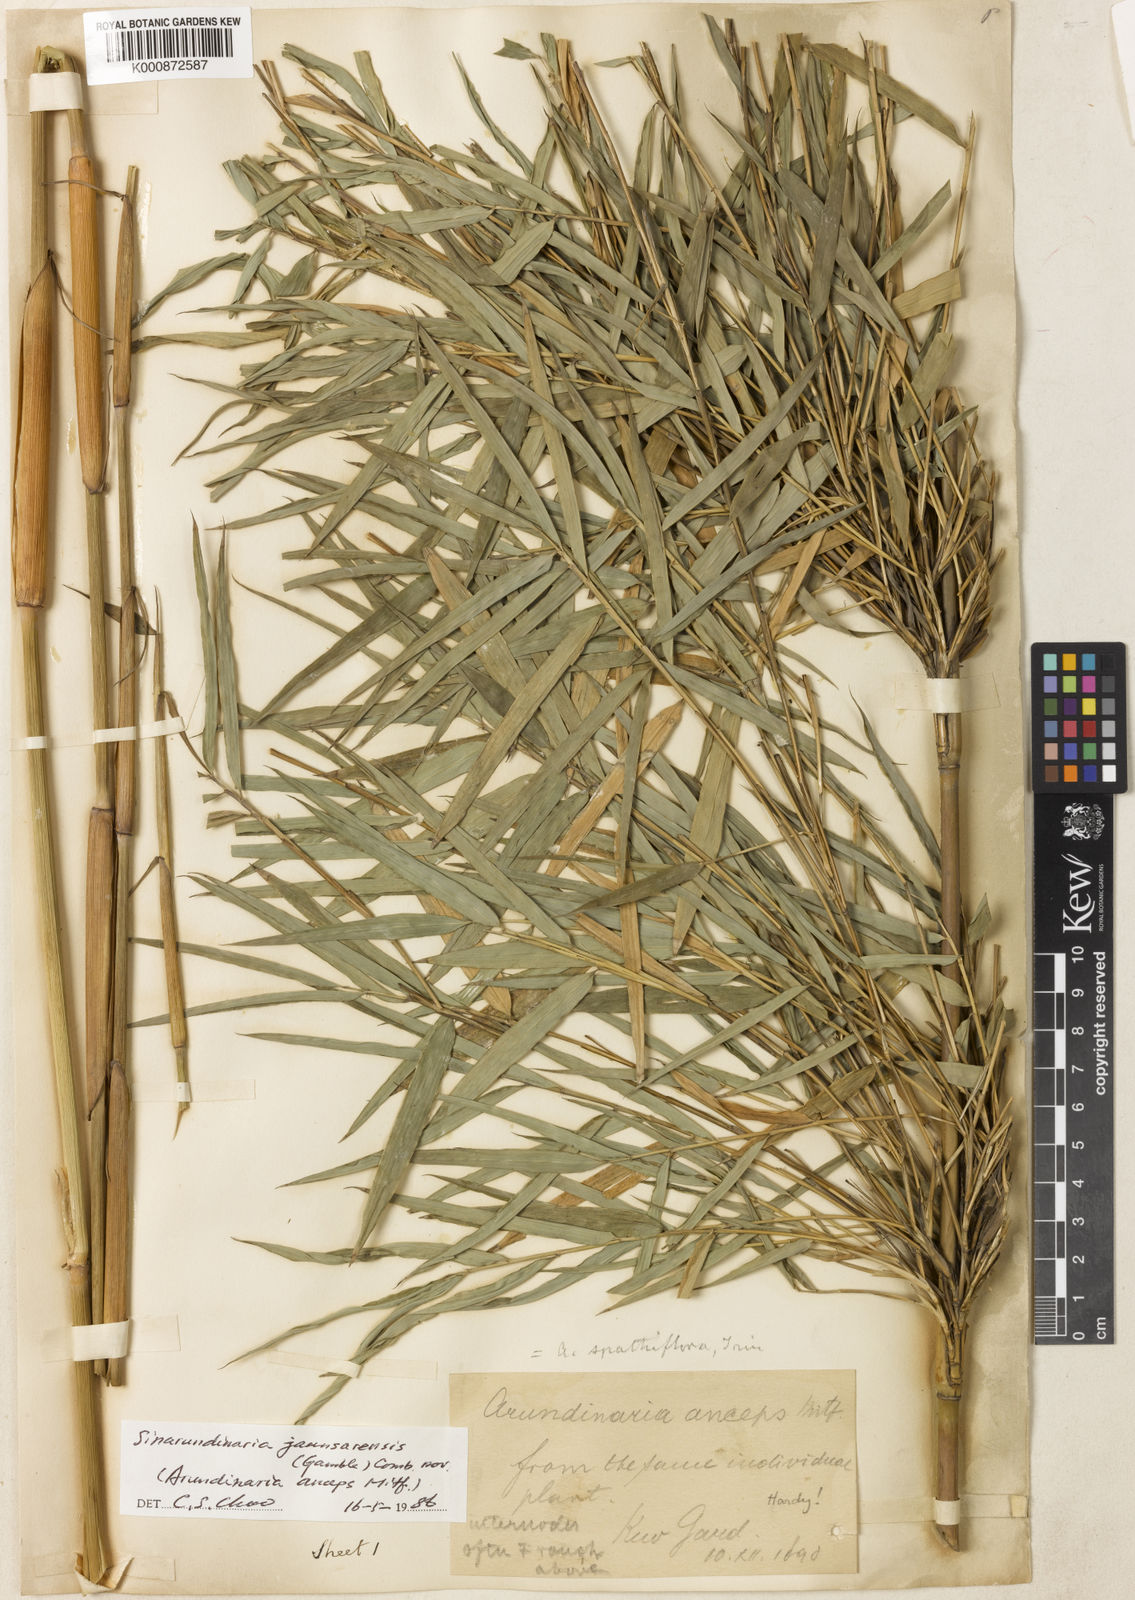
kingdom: Plantae
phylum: Tracheophyta
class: Liliopsida
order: Poales
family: Poaceae
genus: Yushania
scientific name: Yushania anceps
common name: Indian fountain-bamboo
